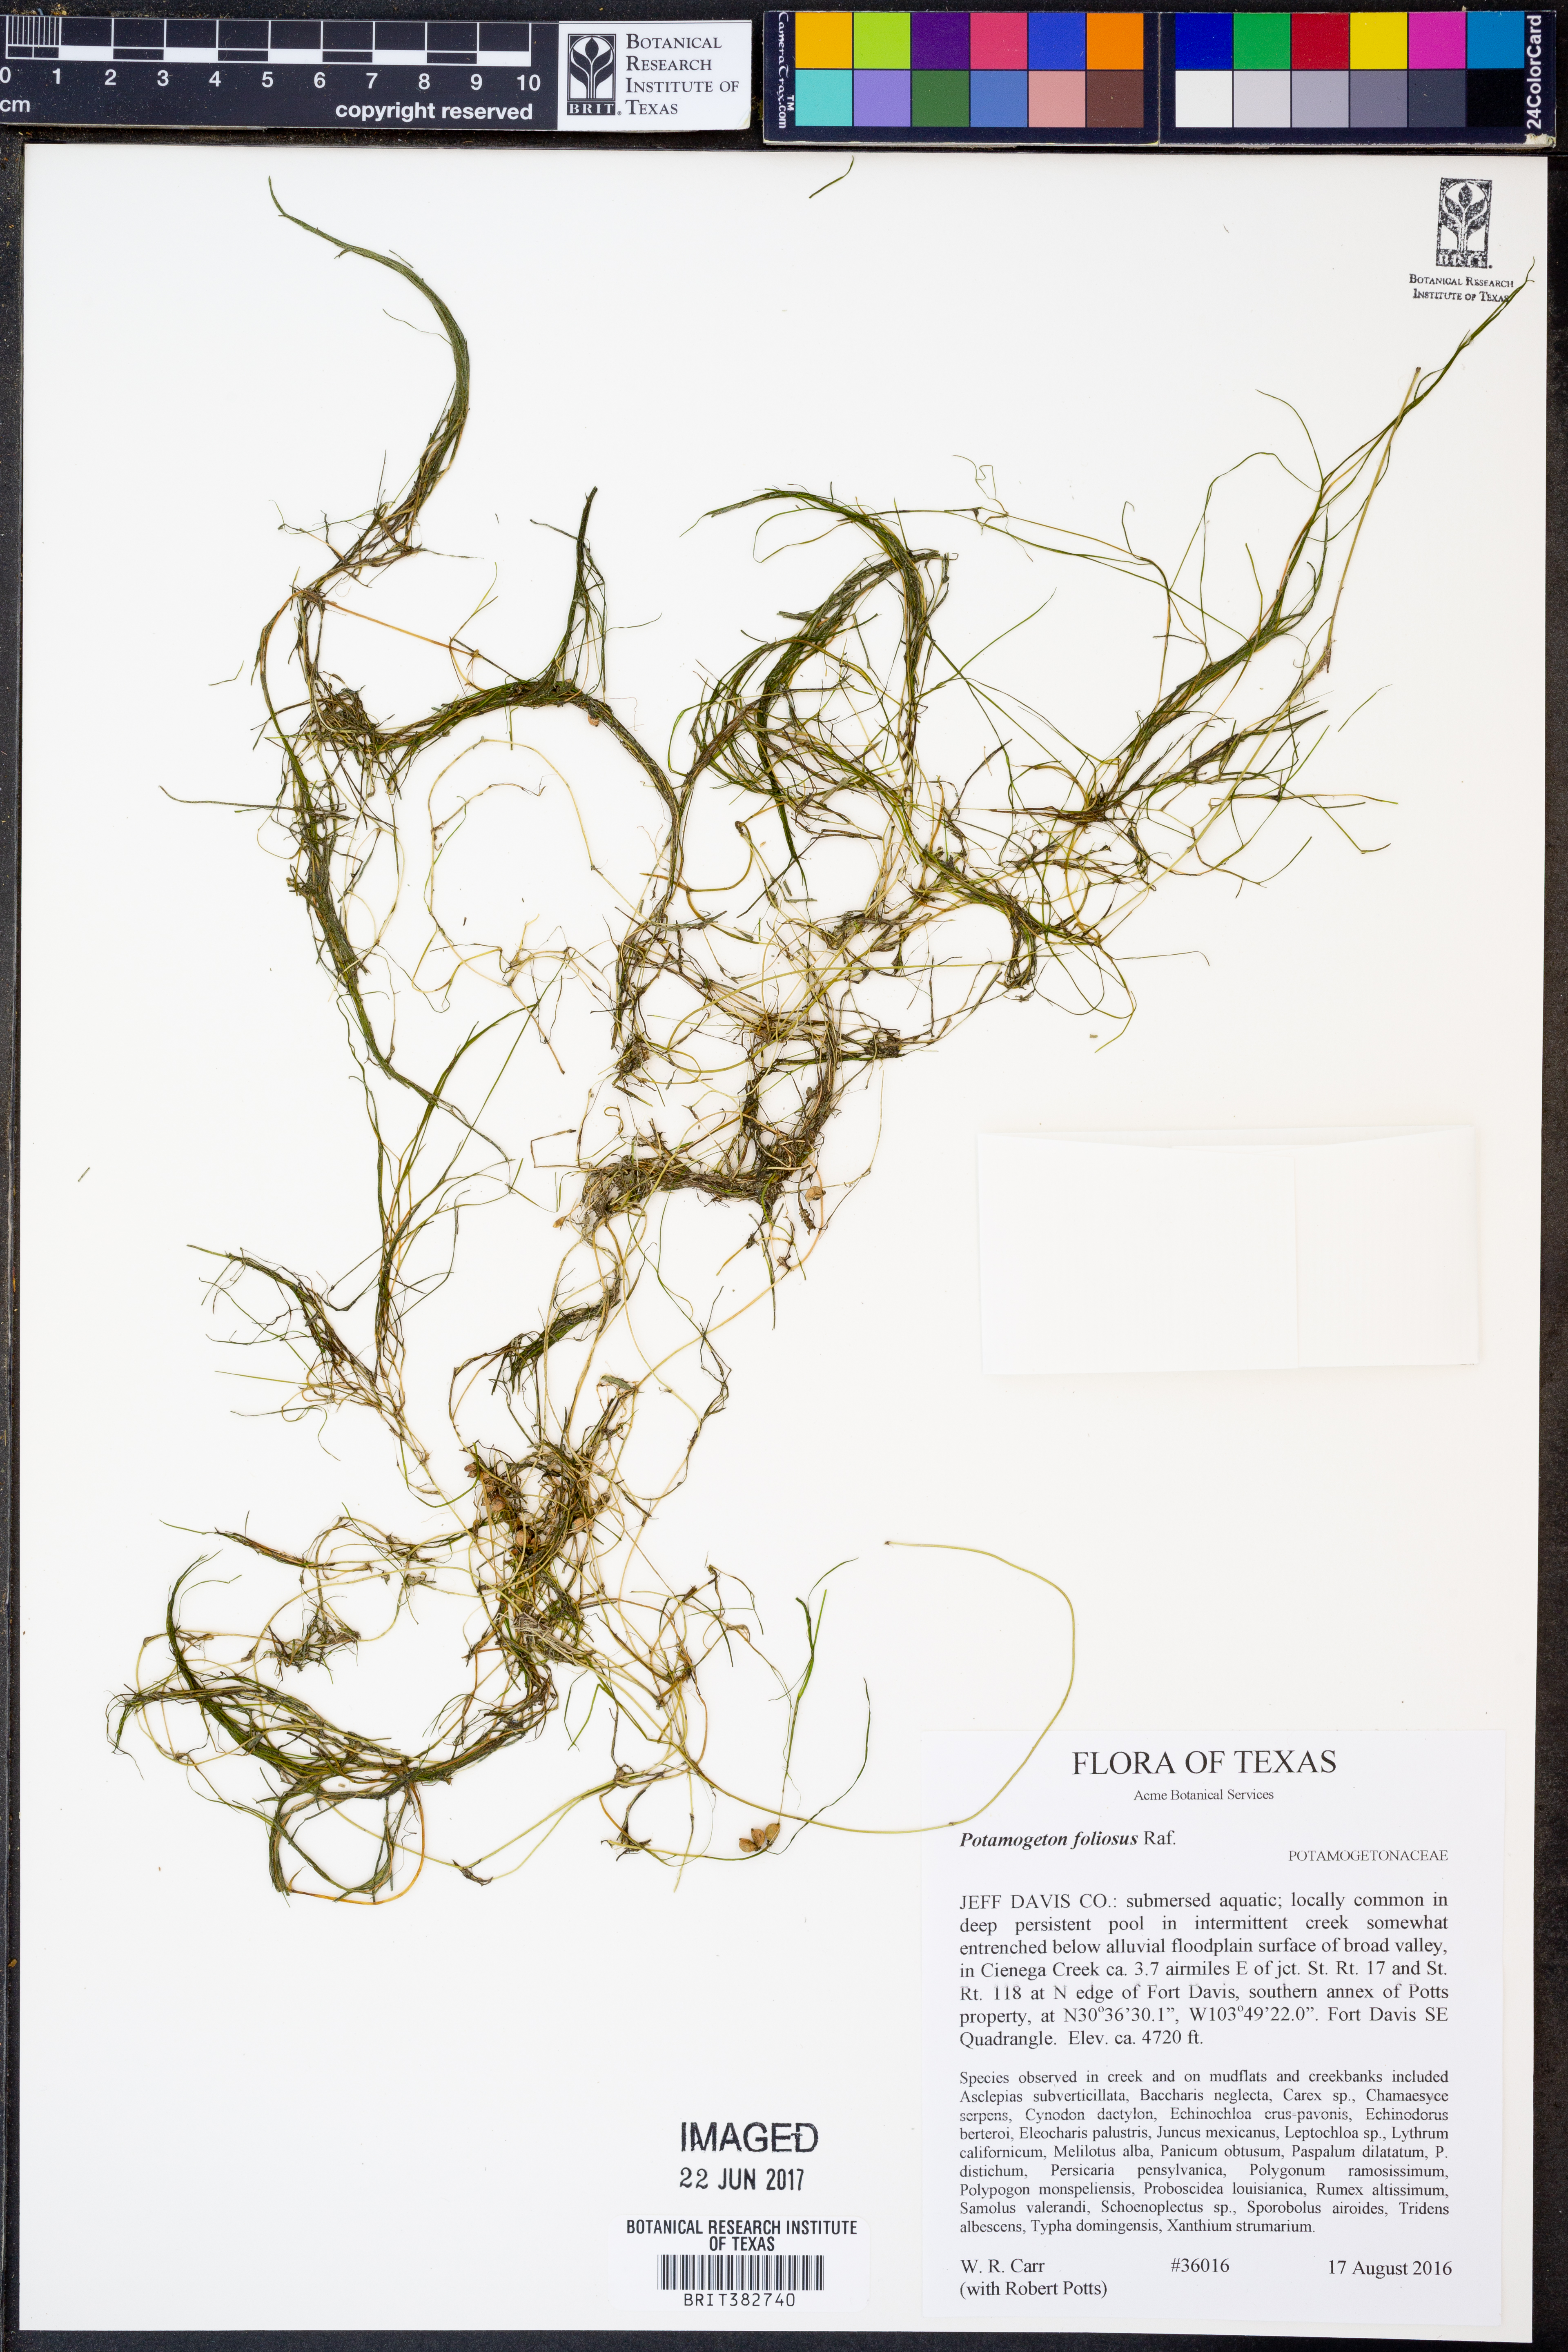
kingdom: Plantae
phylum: Tracheophyta
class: Liliopsida
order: Alismatales
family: Potamogetonaceae
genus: Potamogeton
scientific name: Potamogeton foliosus
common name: Leafy pondweed
